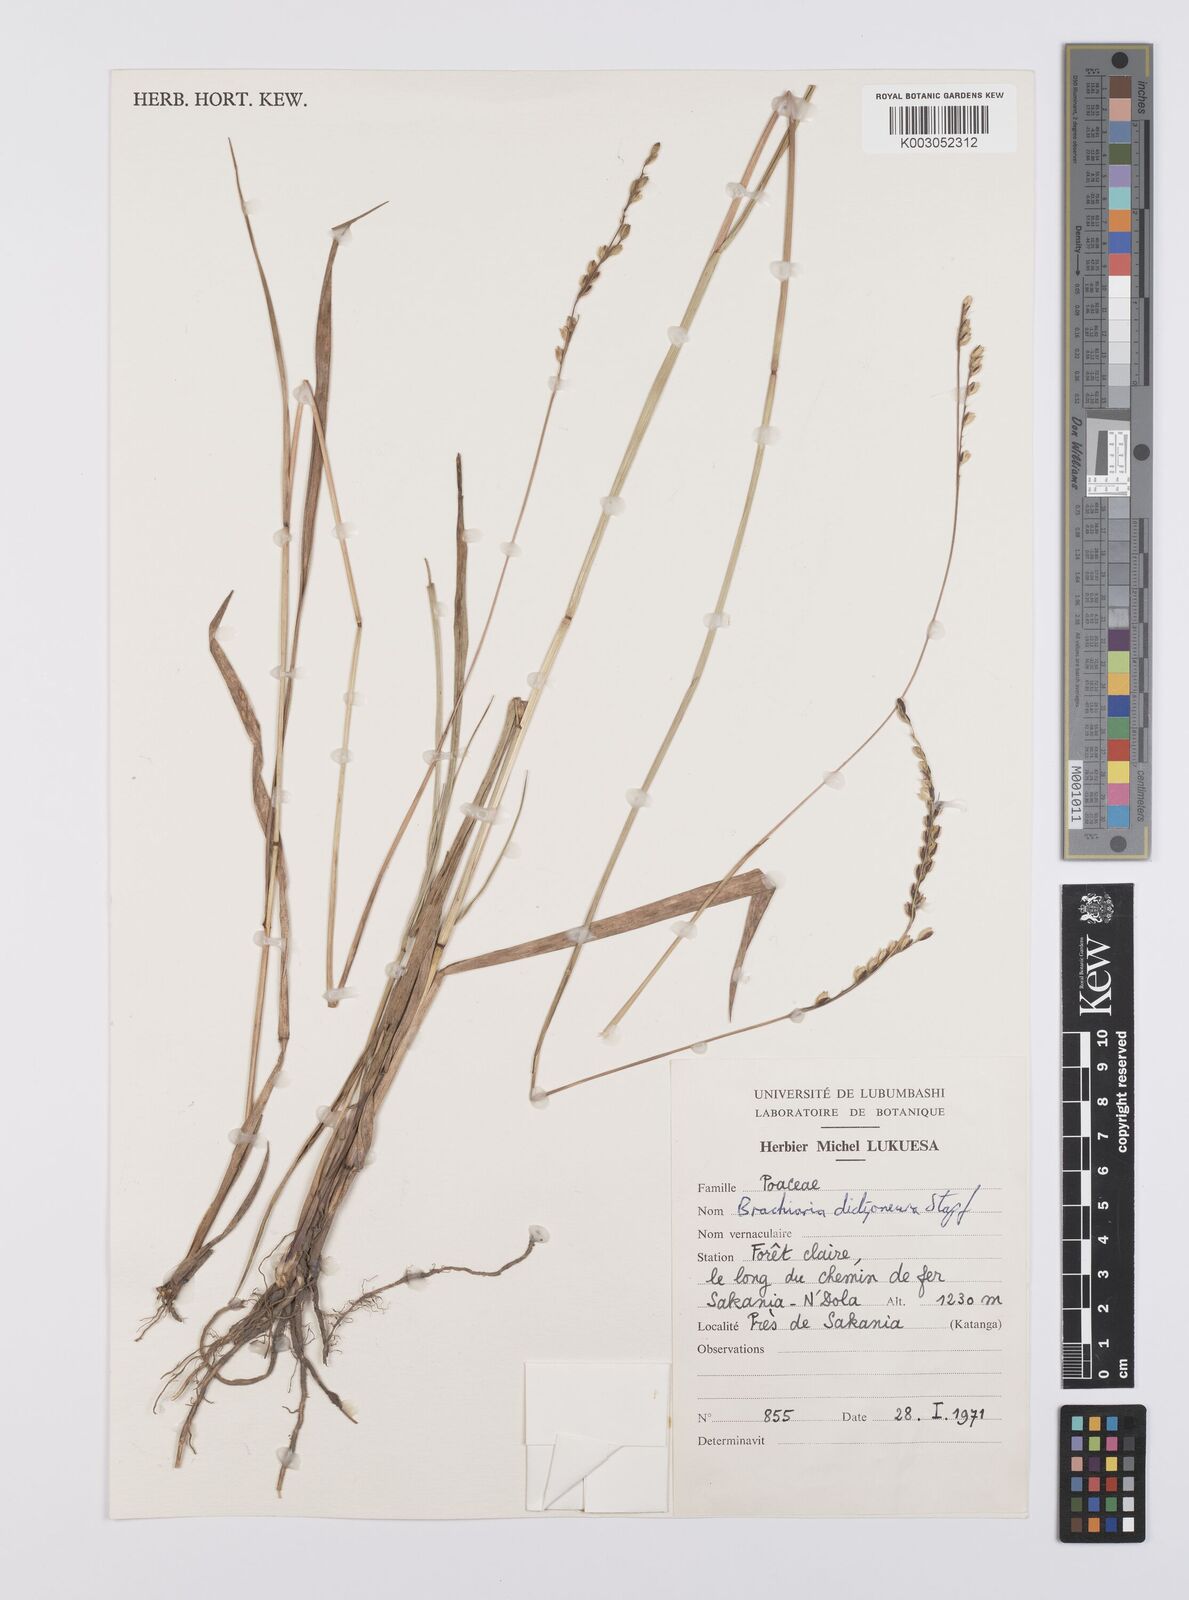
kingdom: Plantae
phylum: Tracheophyta
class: Liliopsida
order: Poales
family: Poaceae
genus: Urochloa
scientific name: Urochloa dictyoneura
